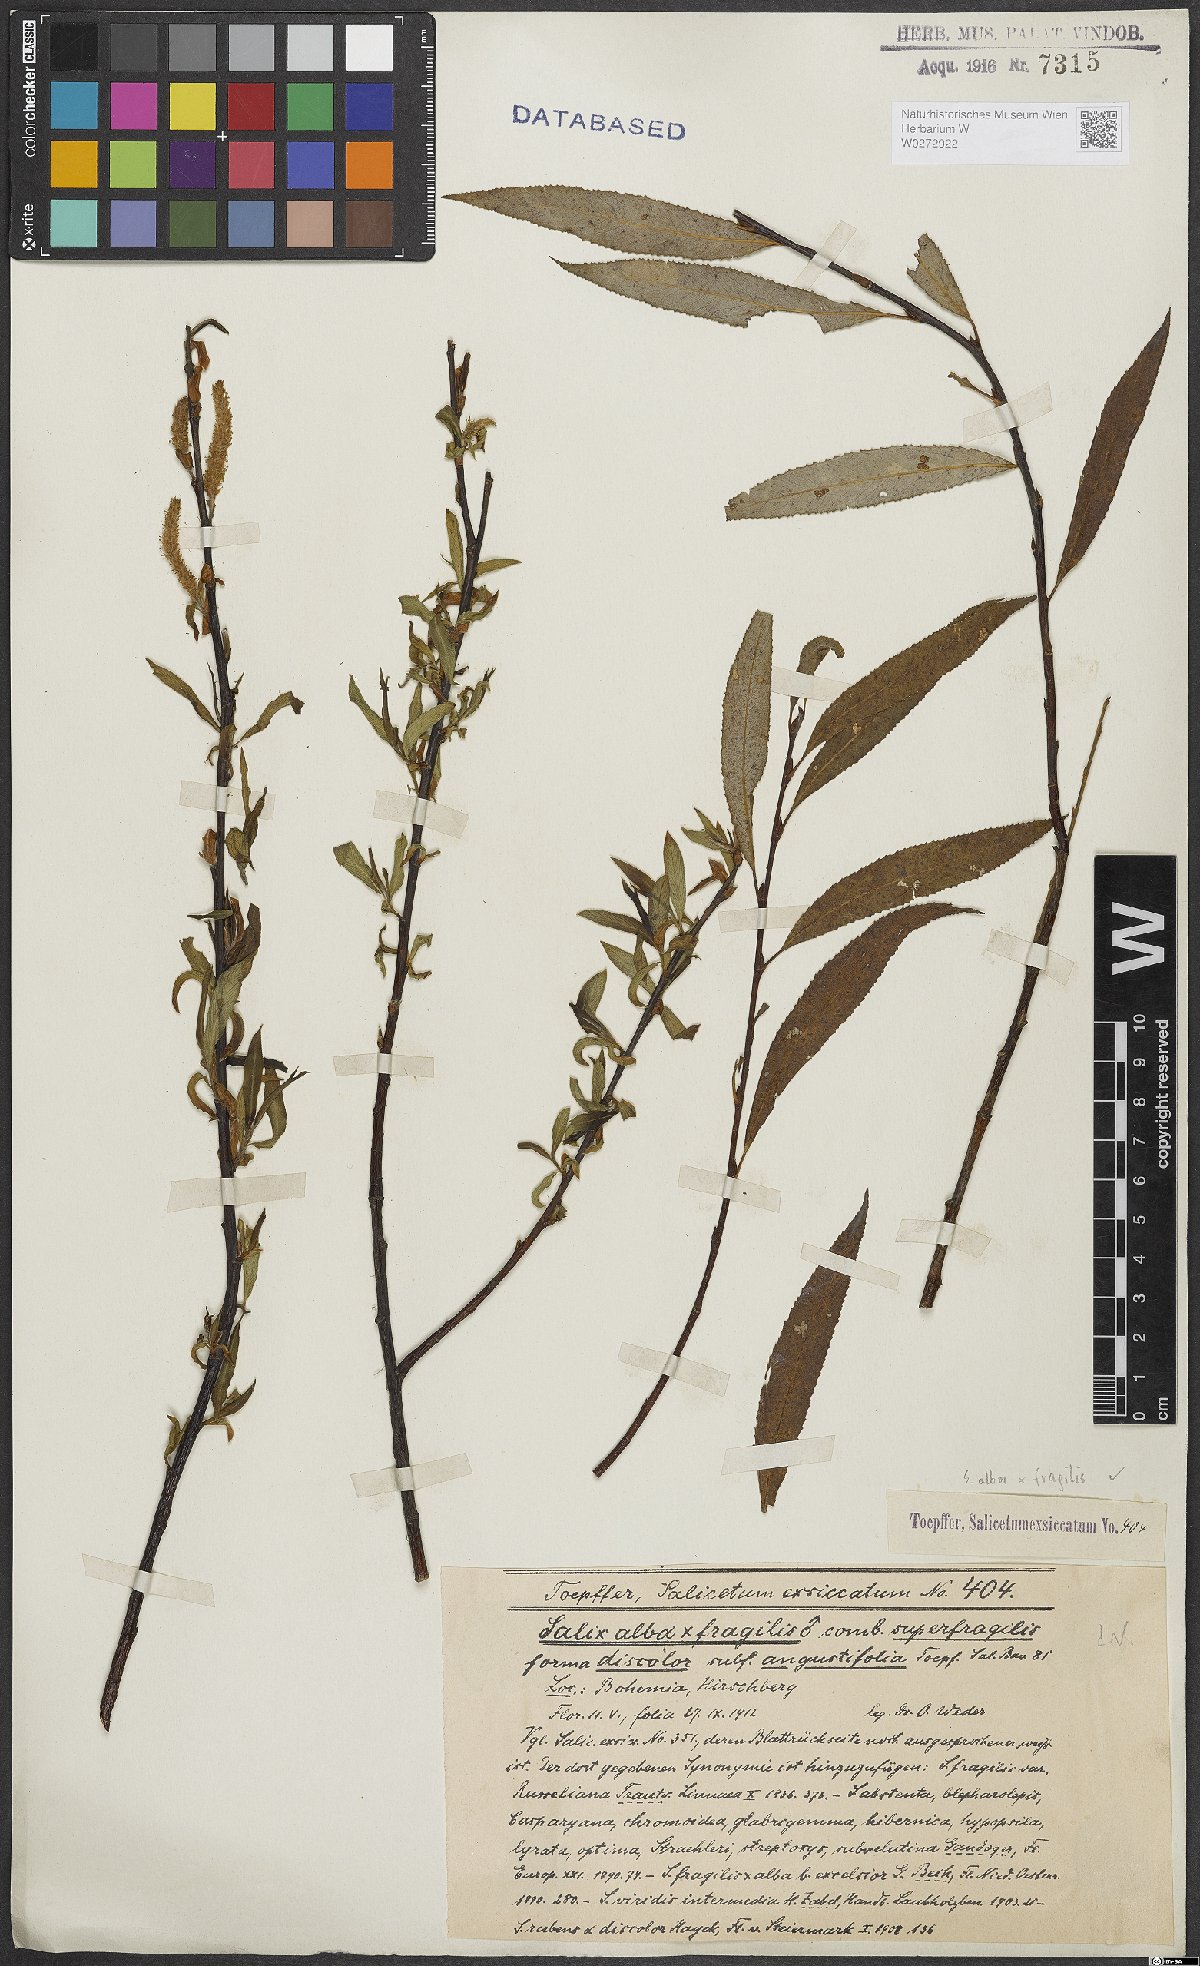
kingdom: Plantae
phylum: Tracheophyta
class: Magnoliopsida
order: Malpighiales
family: Salicaceae
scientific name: Salicaceae
